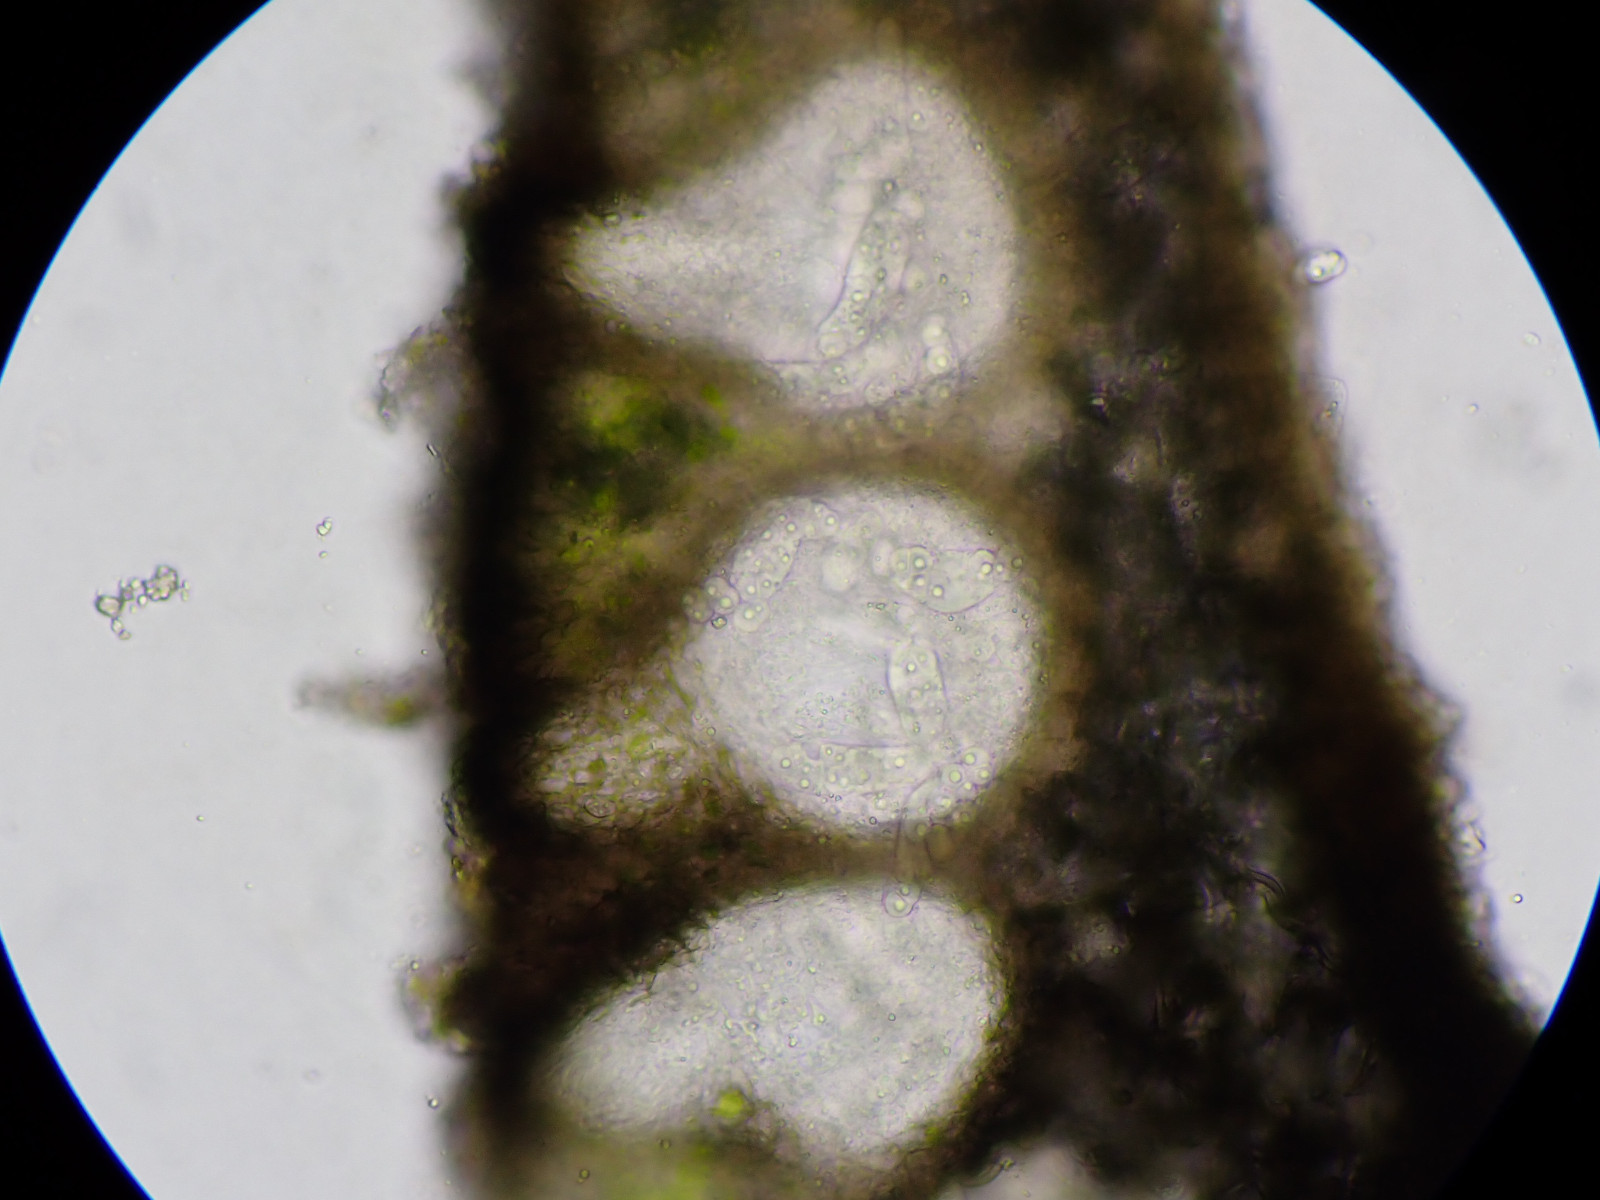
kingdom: Fungi
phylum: Ascomycota
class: Sordariomycetes
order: Phyllachorales
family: Phyllachoraceae
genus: Lichenochora
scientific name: Lichenochora weillii
